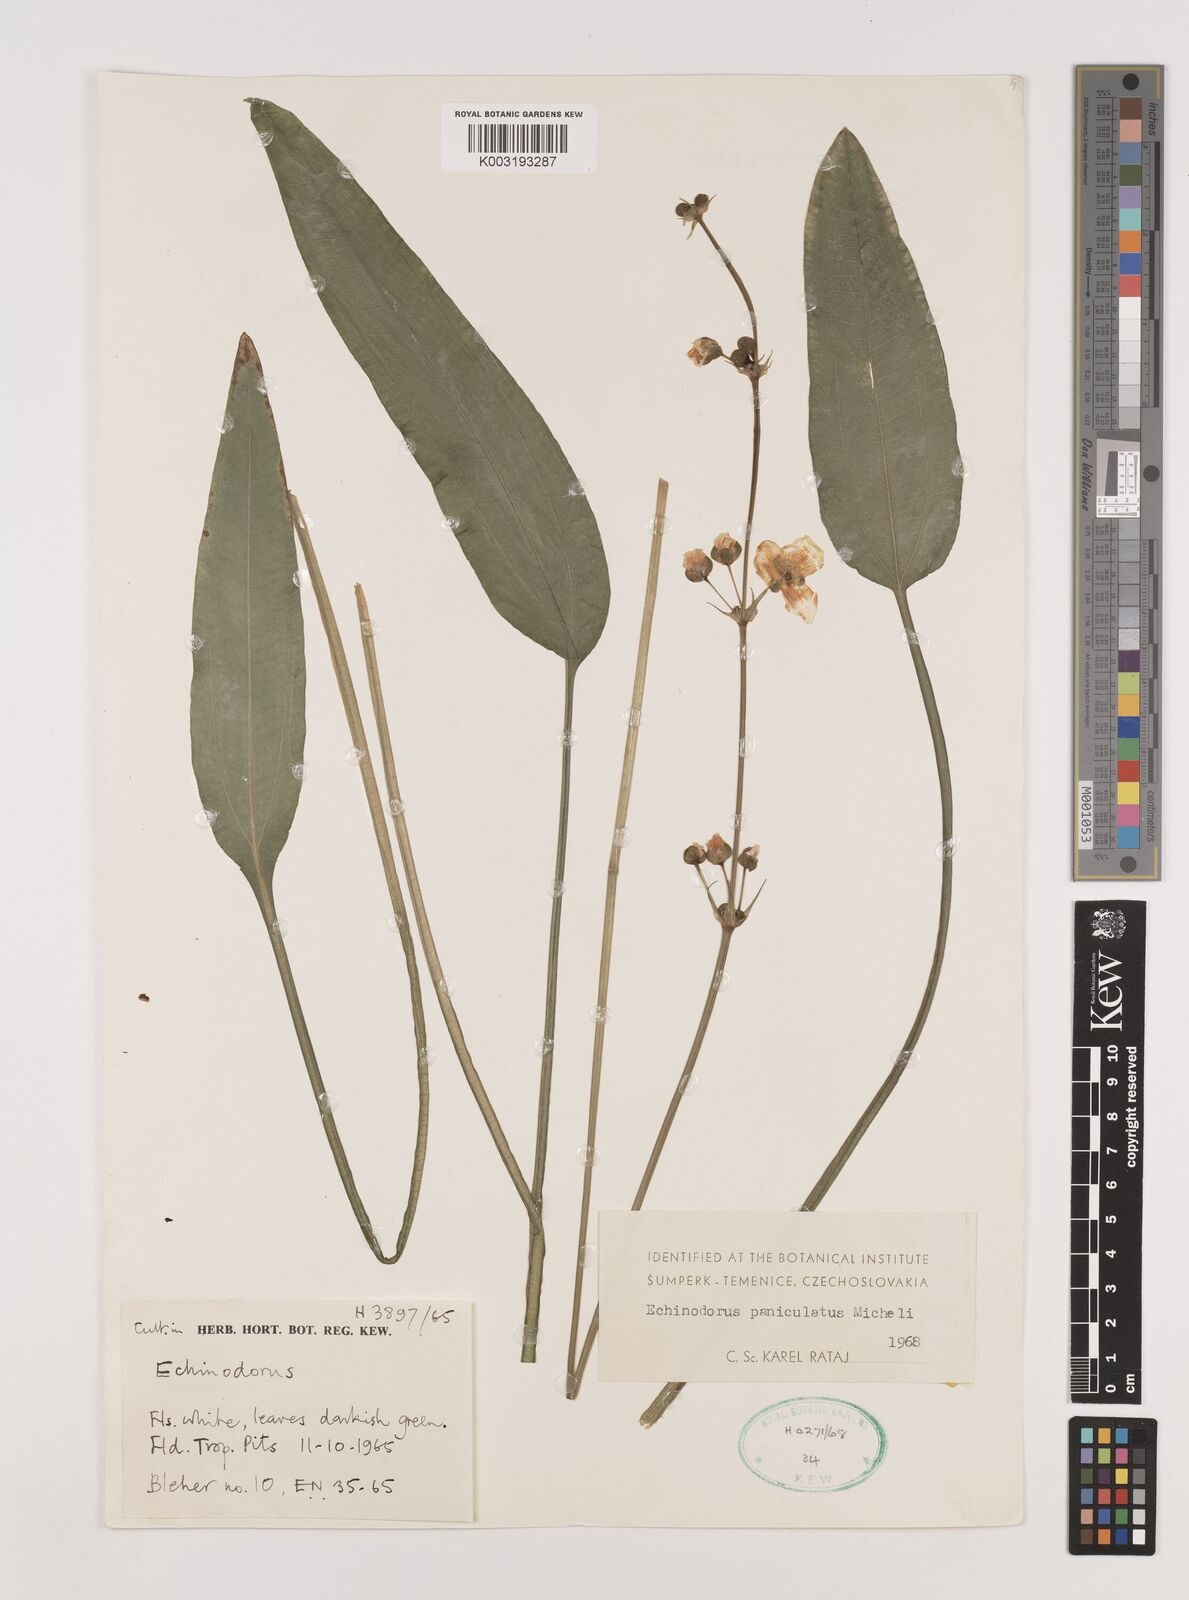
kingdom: Plantae
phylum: Tracheophyta
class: Liliopsida
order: Alismatales
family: Alismataceae
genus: Aquarius
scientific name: Aquarius paniculatus
